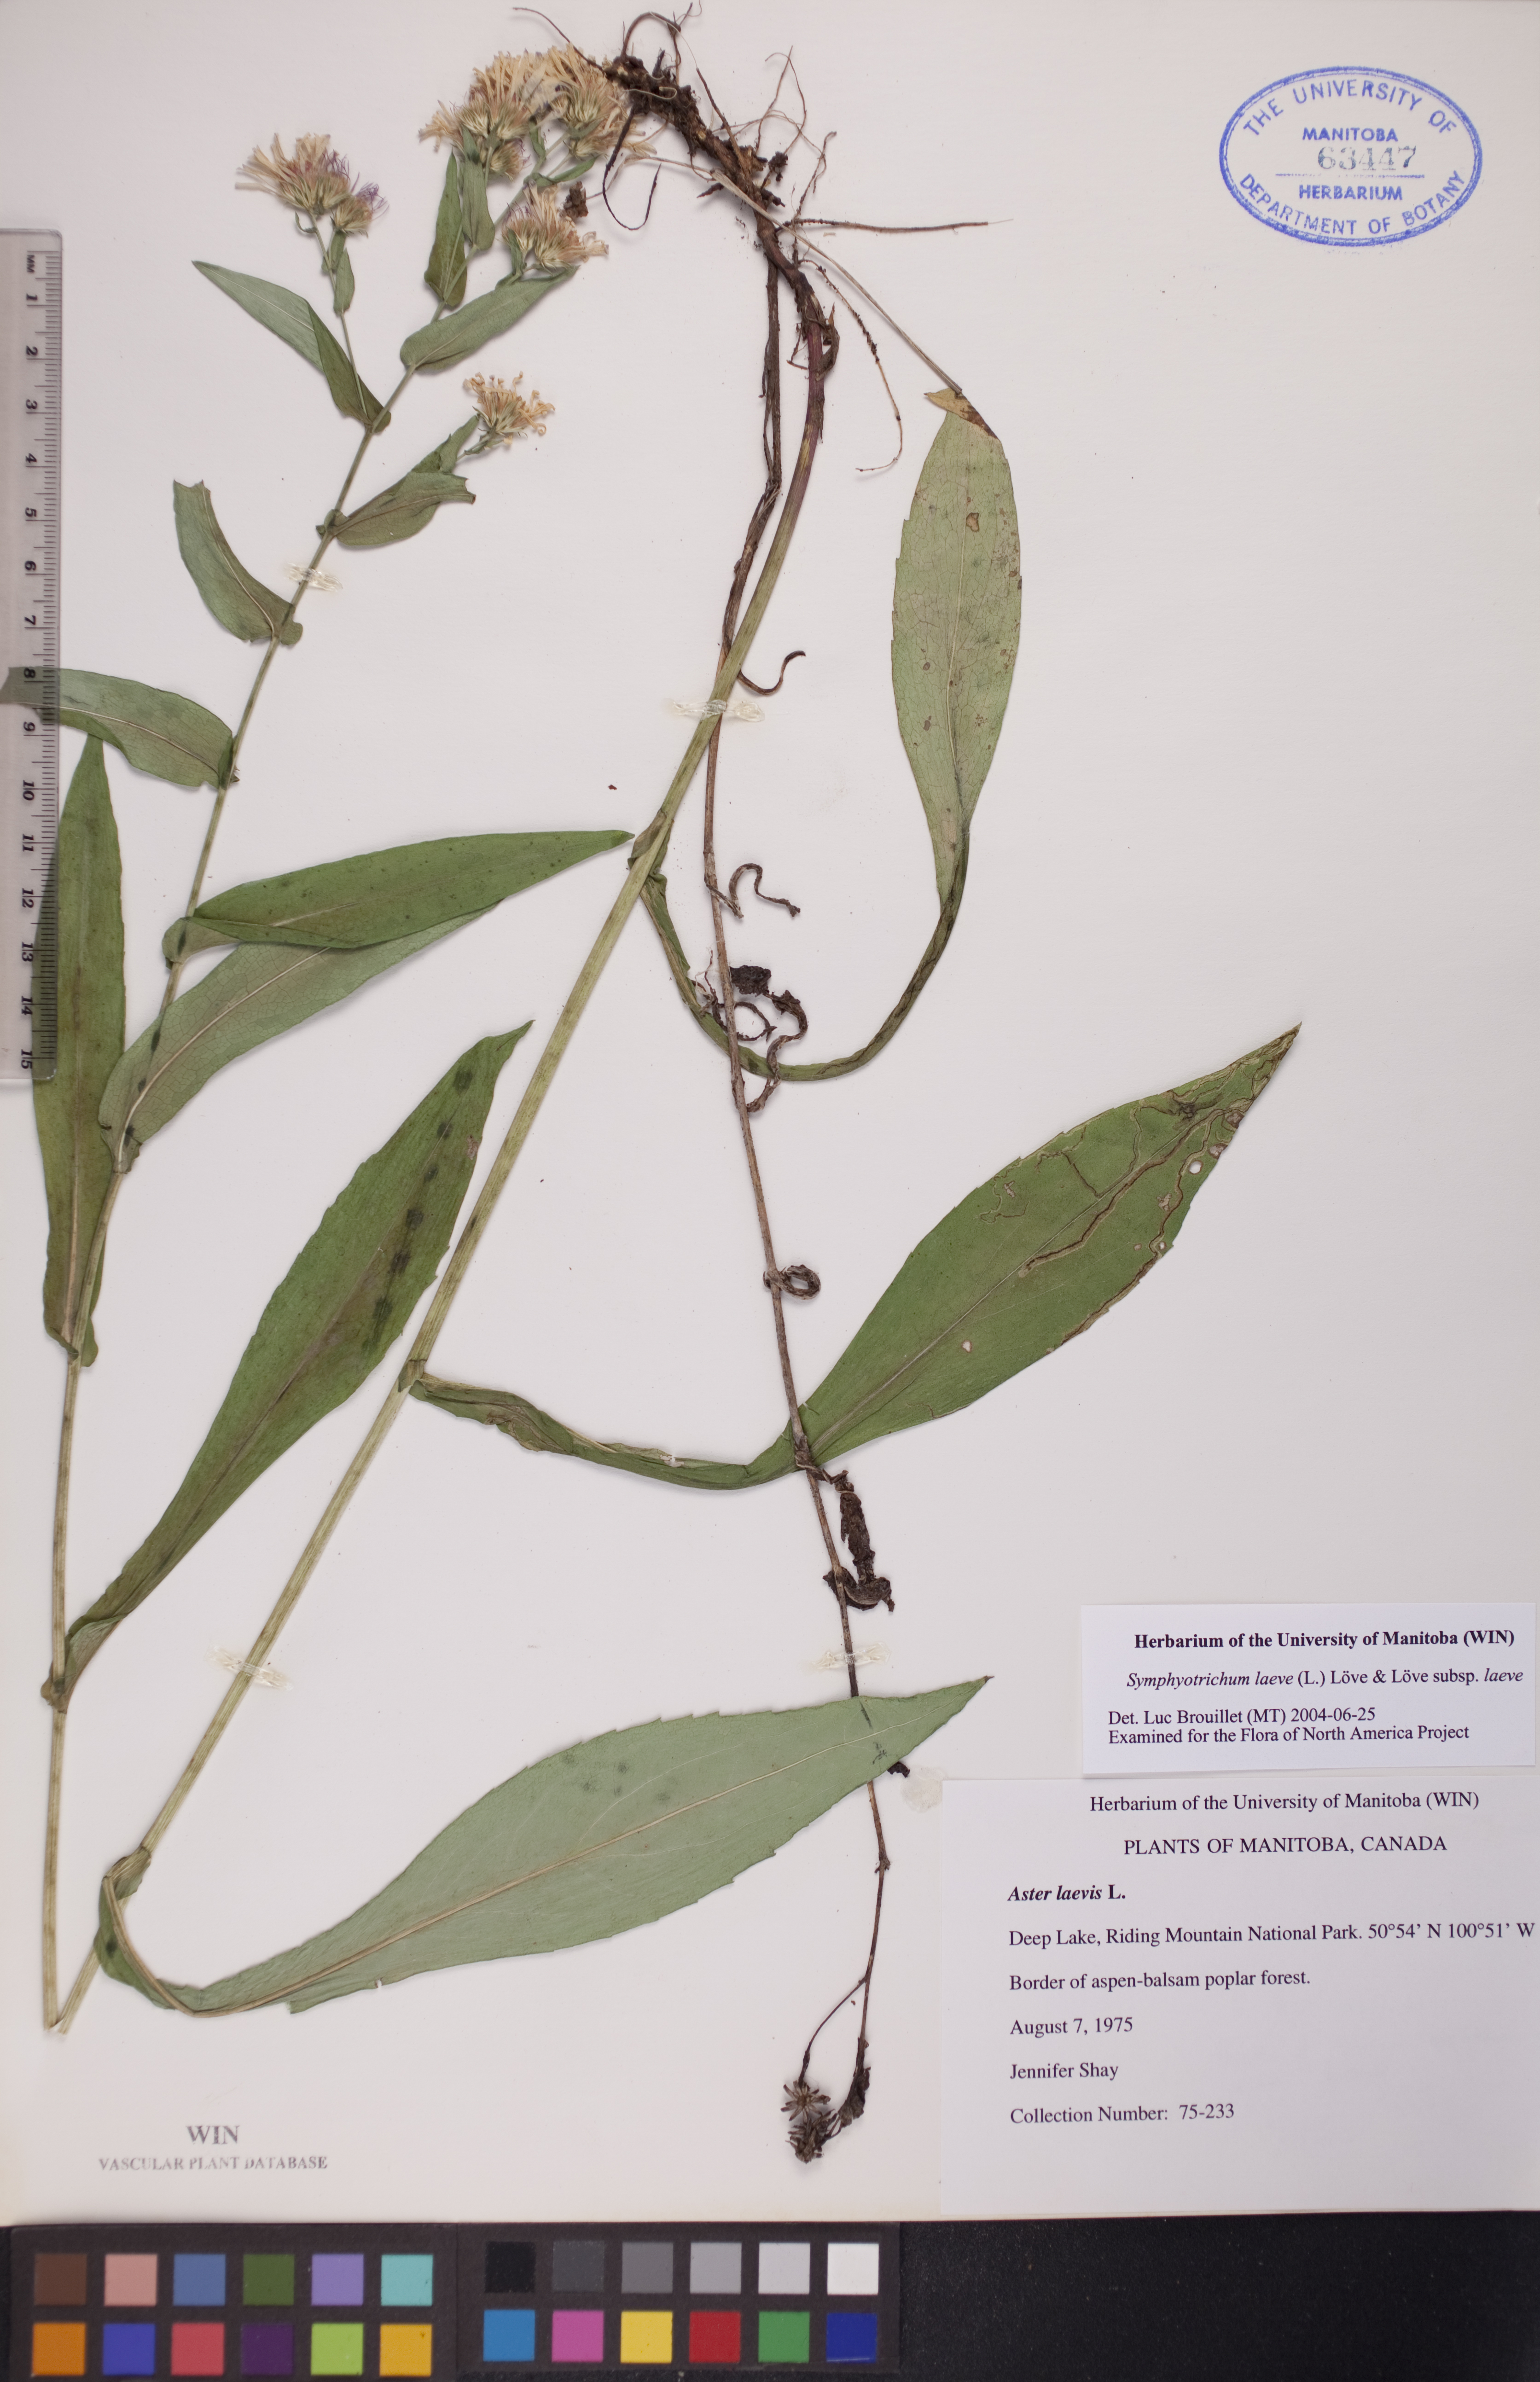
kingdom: Plantae
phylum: Tracheophyta
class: Magnoliopsida
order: Asterales
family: Asteraceae
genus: Symphyotrichum
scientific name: Symphyotrichum laeve
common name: Glaucous aster
